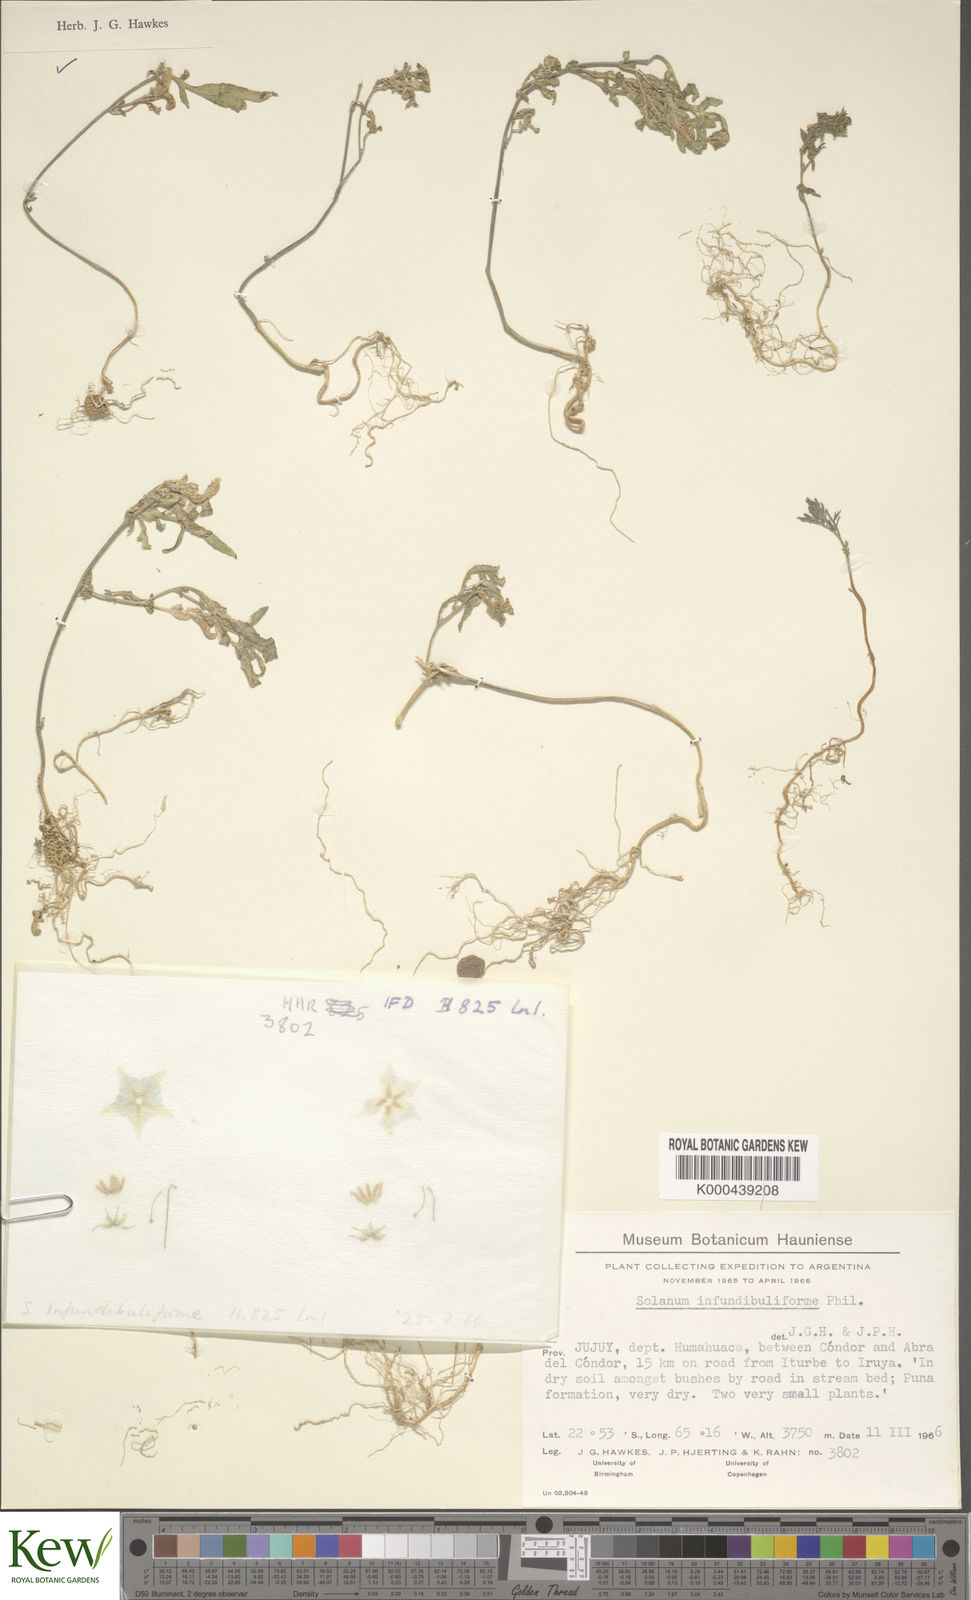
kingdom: Plantae
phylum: Tracheophyta
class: Magnoliopsida
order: Solanales
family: Solanaceae
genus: Solanum
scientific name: Solanum infundibuliforme
